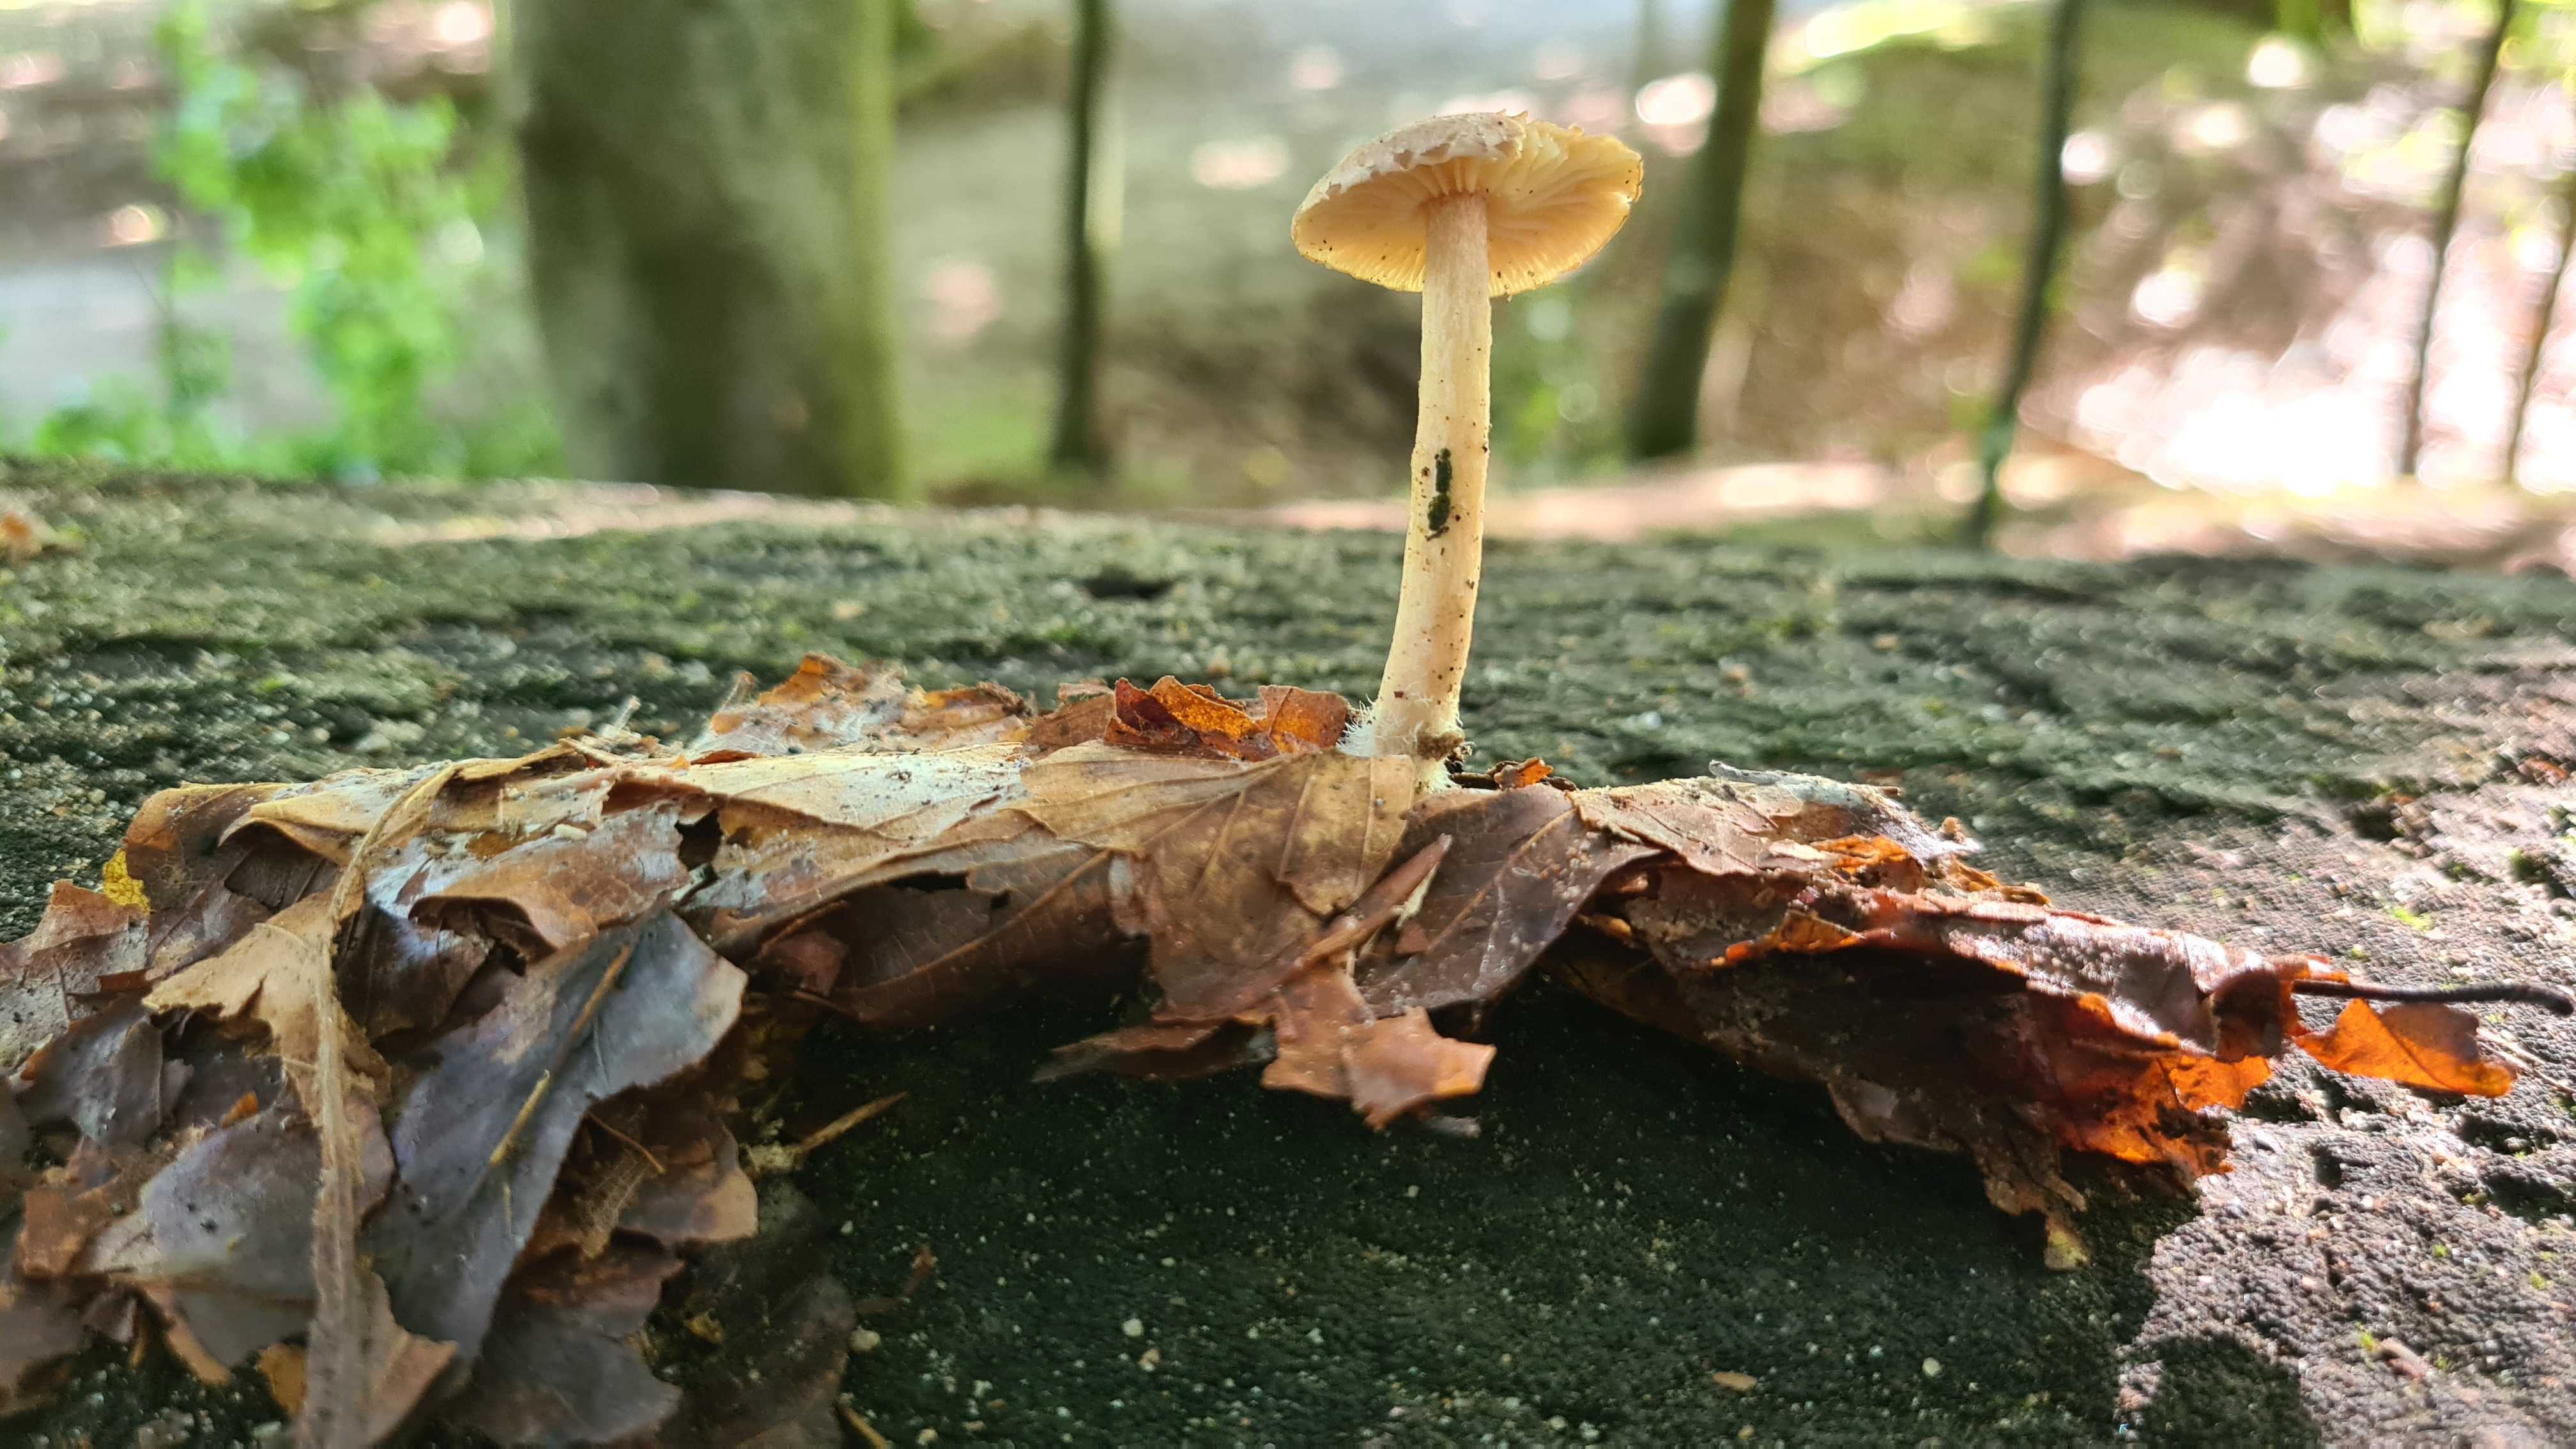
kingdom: Fungi
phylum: Basidiomycota
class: Agaricomycetes
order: Agaricales
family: Omphalotaceae
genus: Collybiopsis
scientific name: Collybiopsis peronata
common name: bestøvlet fladhat
